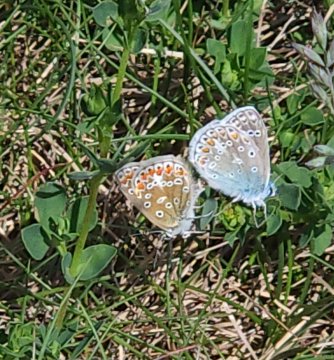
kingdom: Animalia
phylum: Arthropoda
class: Insecta
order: Lepidoptera
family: Lycaenidae
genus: Polyommatus
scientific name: Polyommatus icarus
